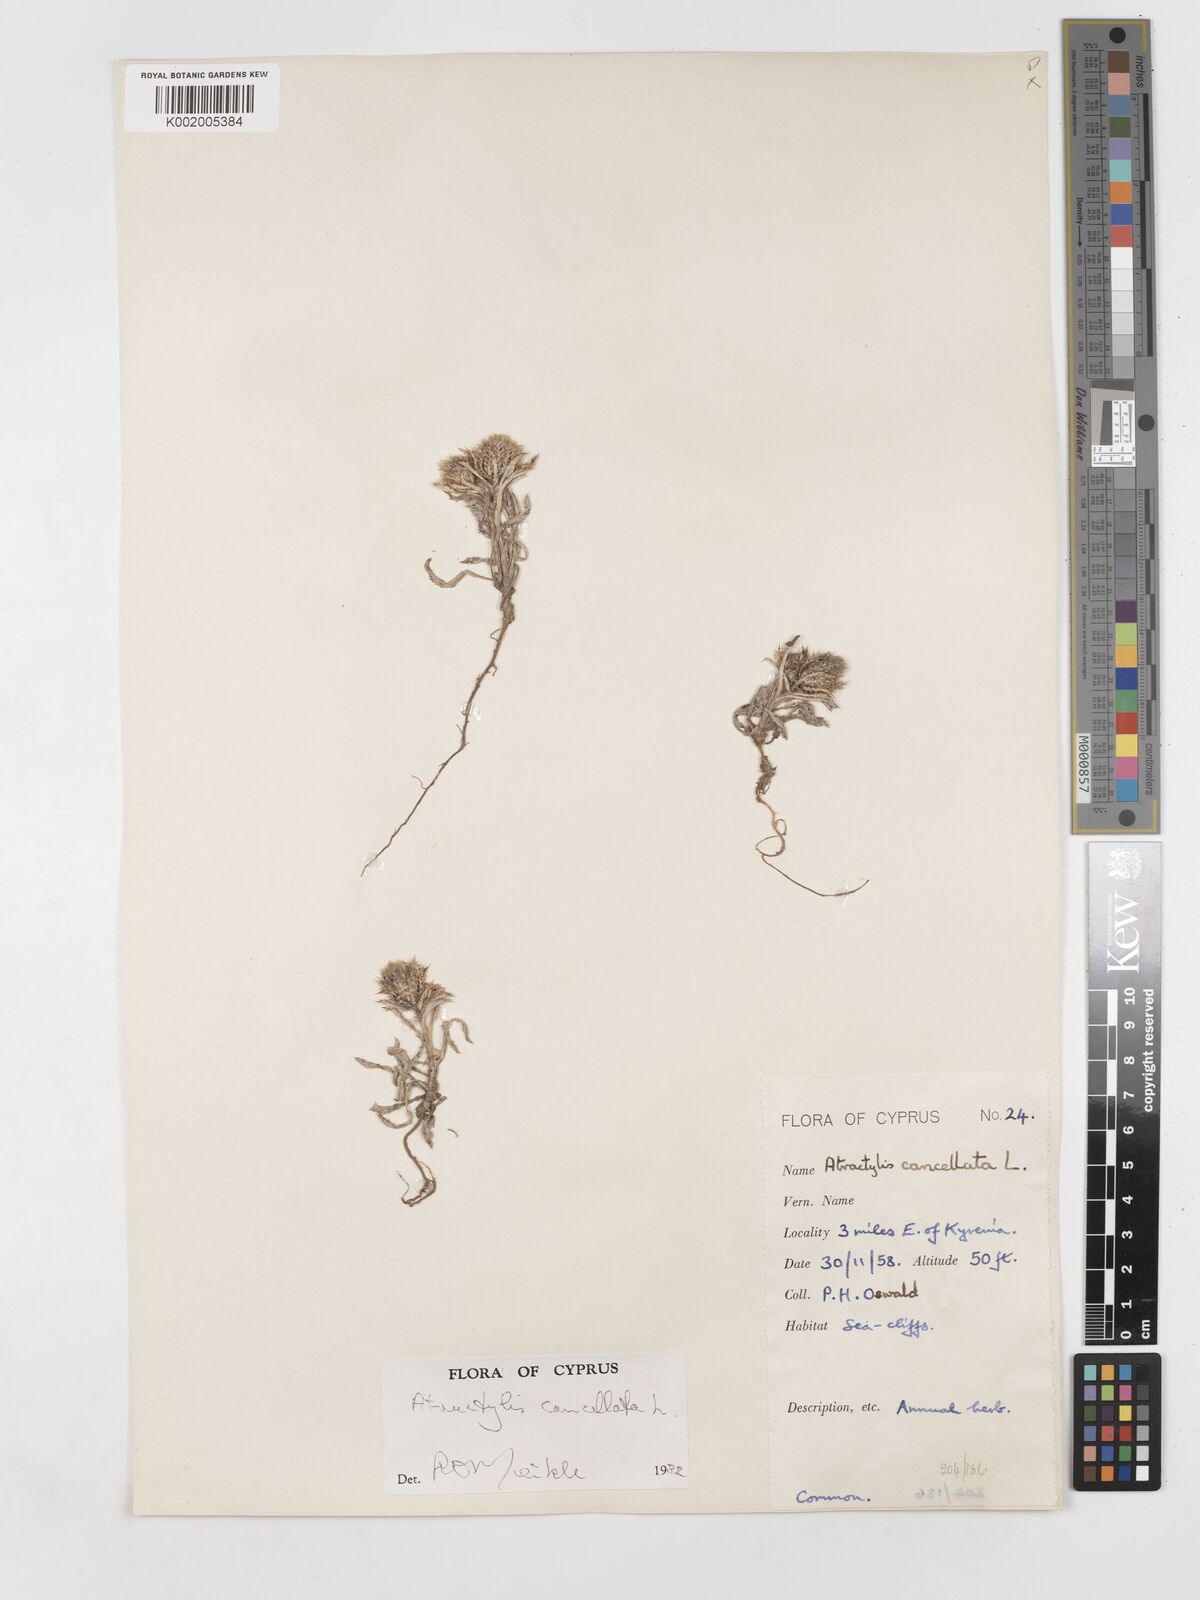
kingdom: Plantae
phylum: Tracheophyta
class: Magnoliopsida
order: Asterales
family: Asteraceae
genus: Atractylis
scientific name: Atractylis cancellata
